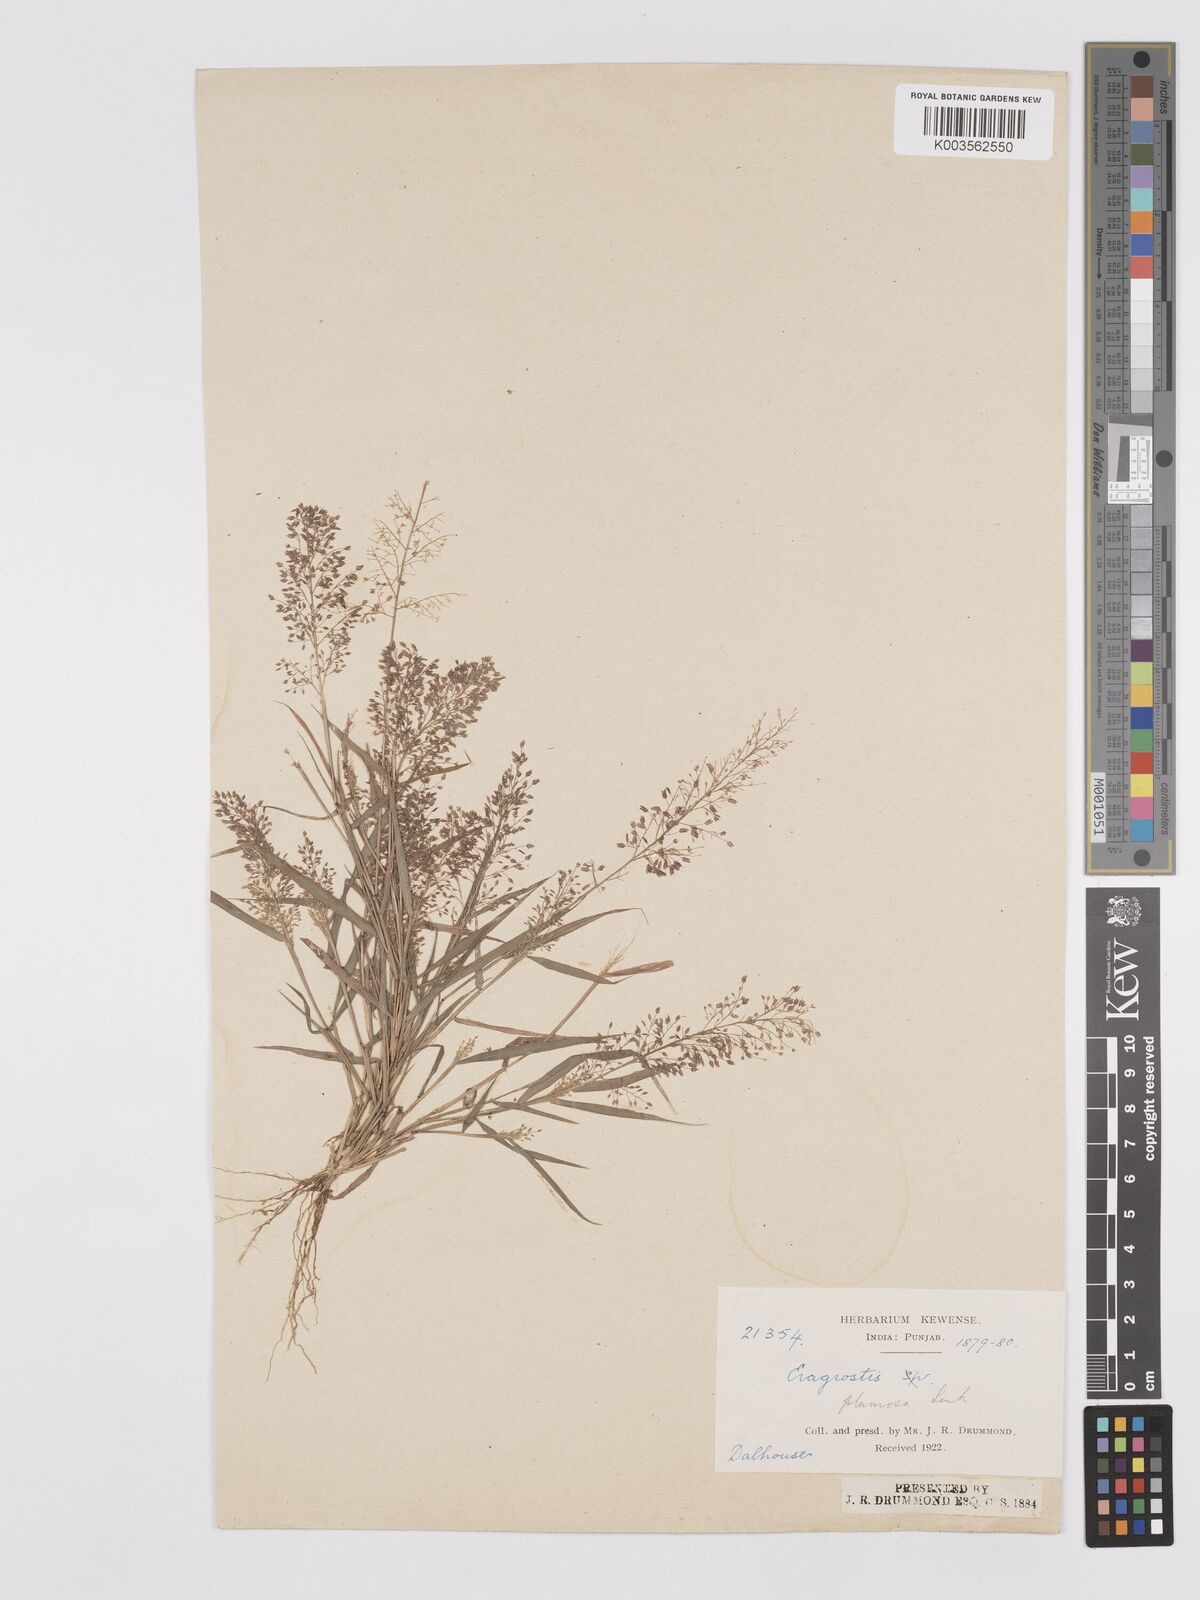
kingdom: Plantae
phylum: Tracheophyta
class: Liliopsida
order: Poales
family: Poaceae
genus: Eragrostis
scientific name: Eragrostis tenella
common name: Japanese lovegrass
